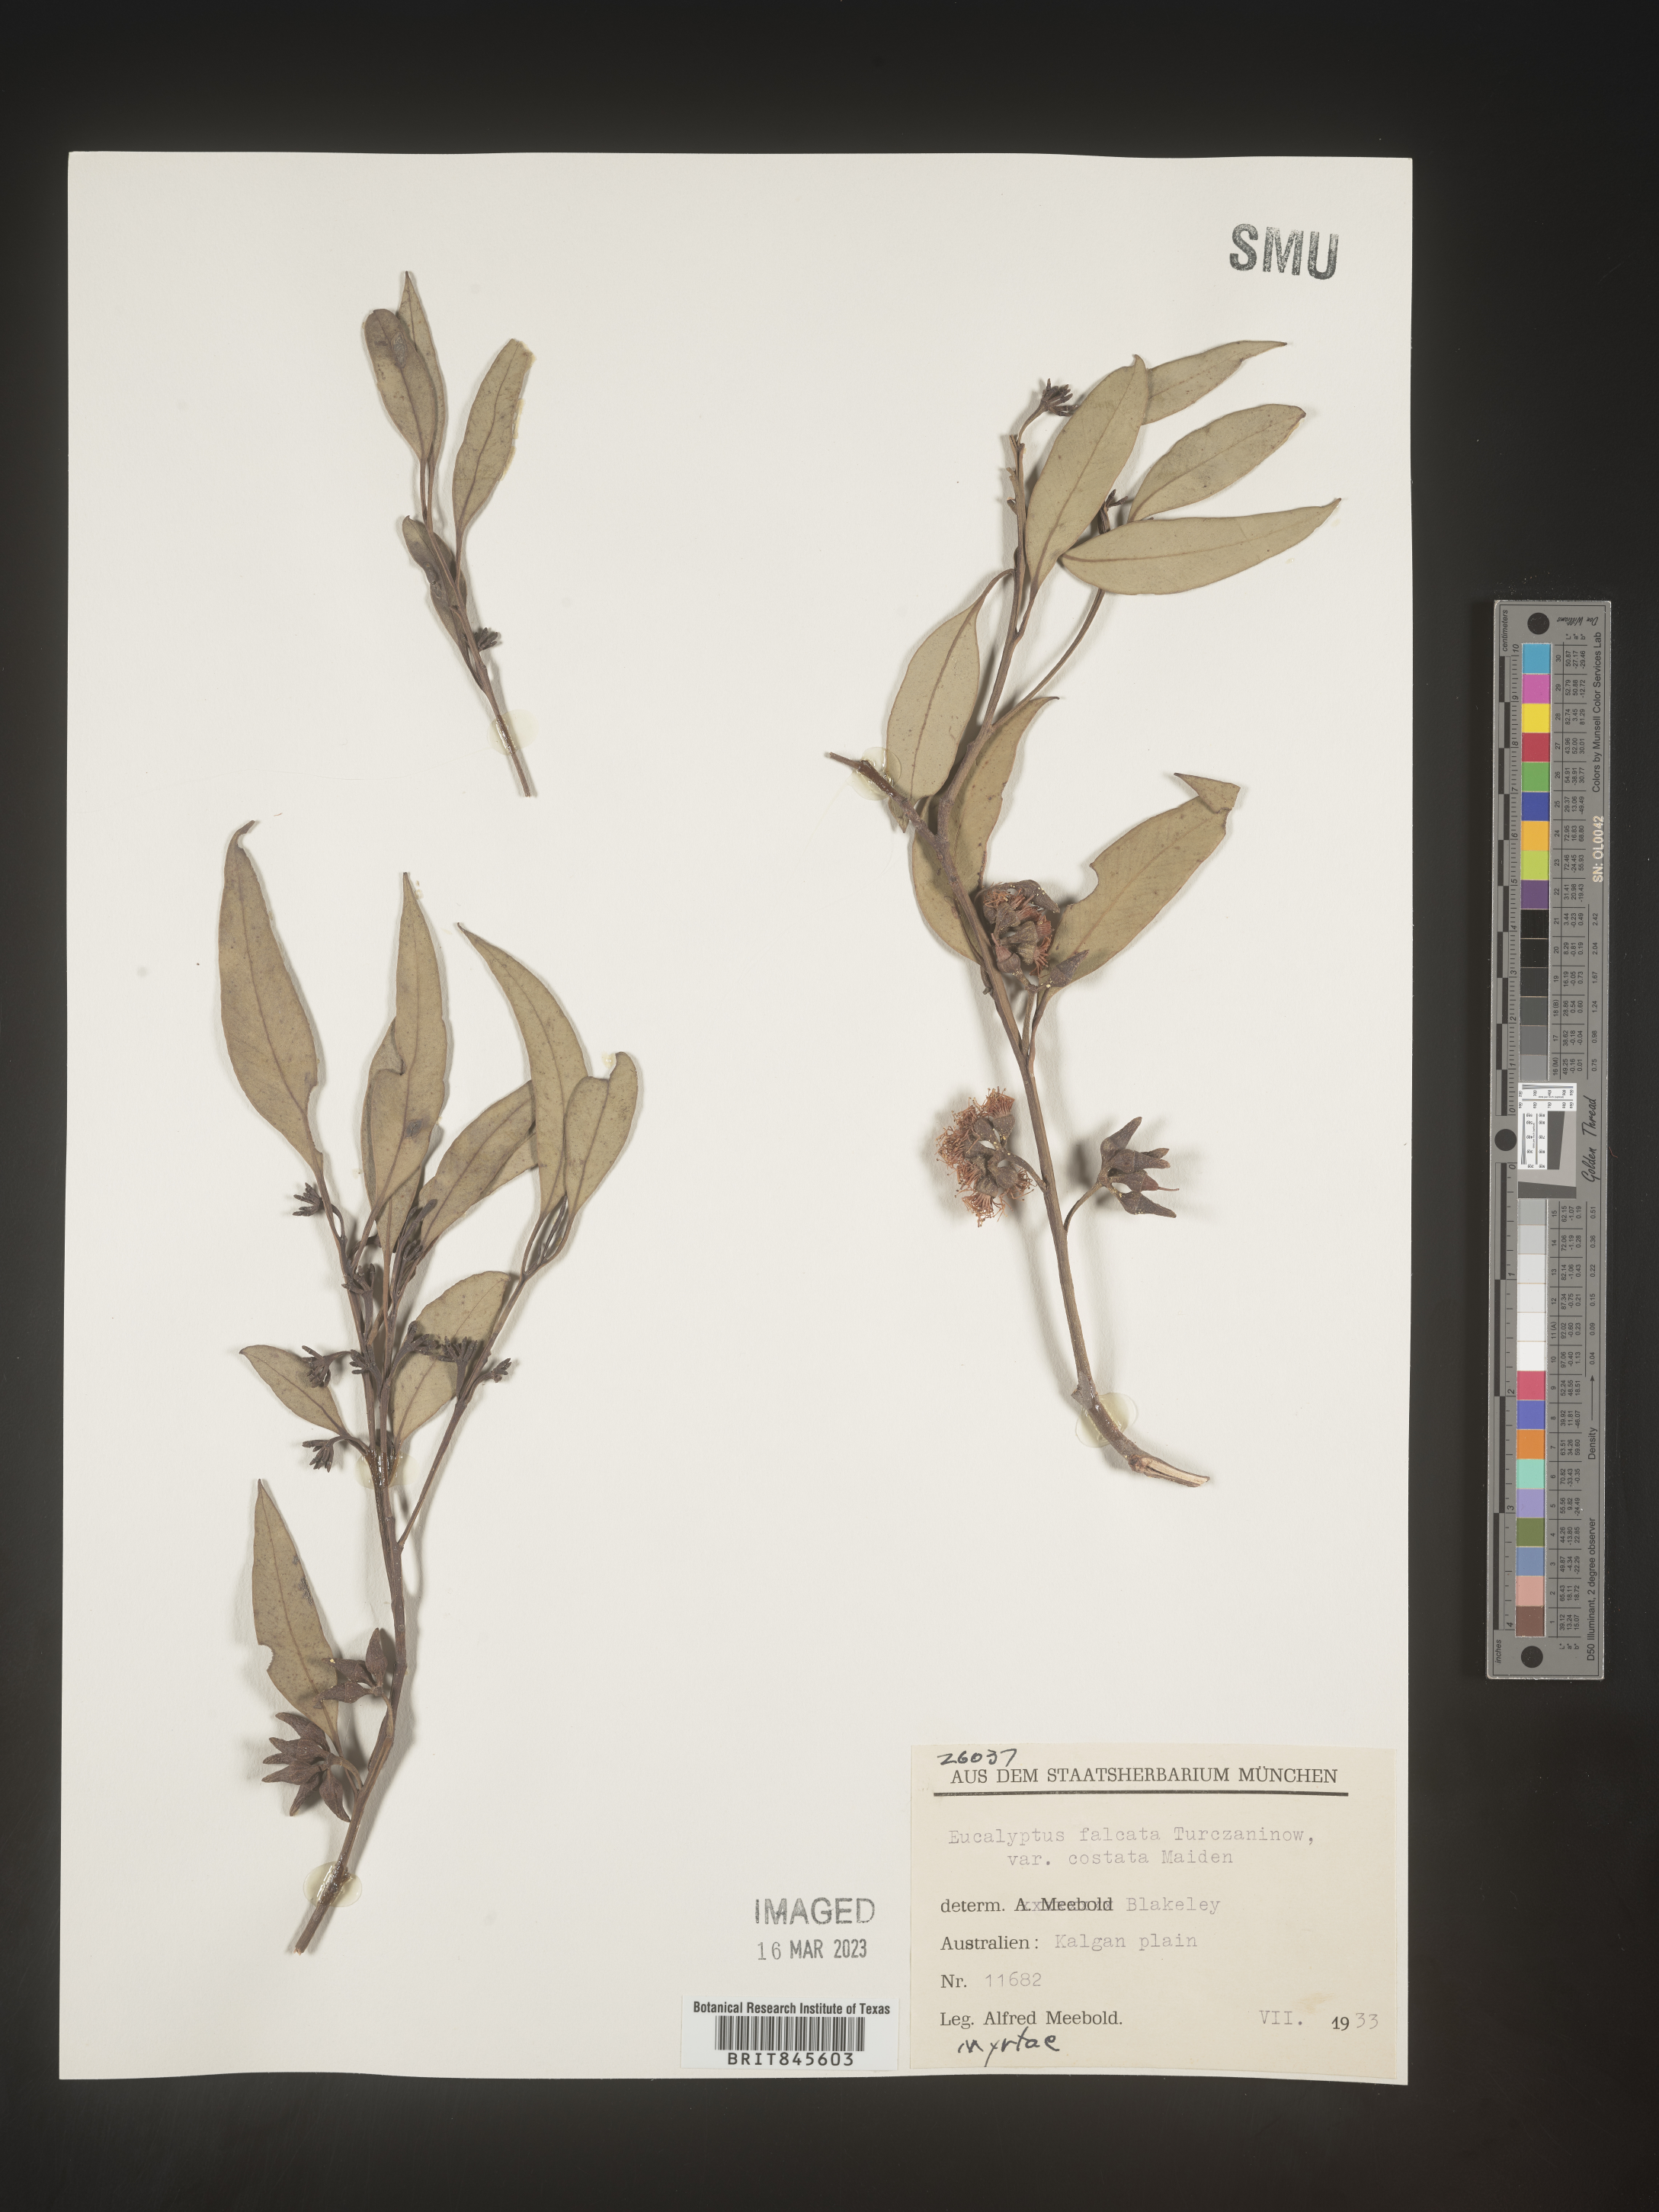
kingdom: Plantae
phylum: Tracheophyta
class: Magnoliopsida
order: Myrtales
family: Myrtaceae
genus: Eucalyptus
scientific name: Eucalyptus
